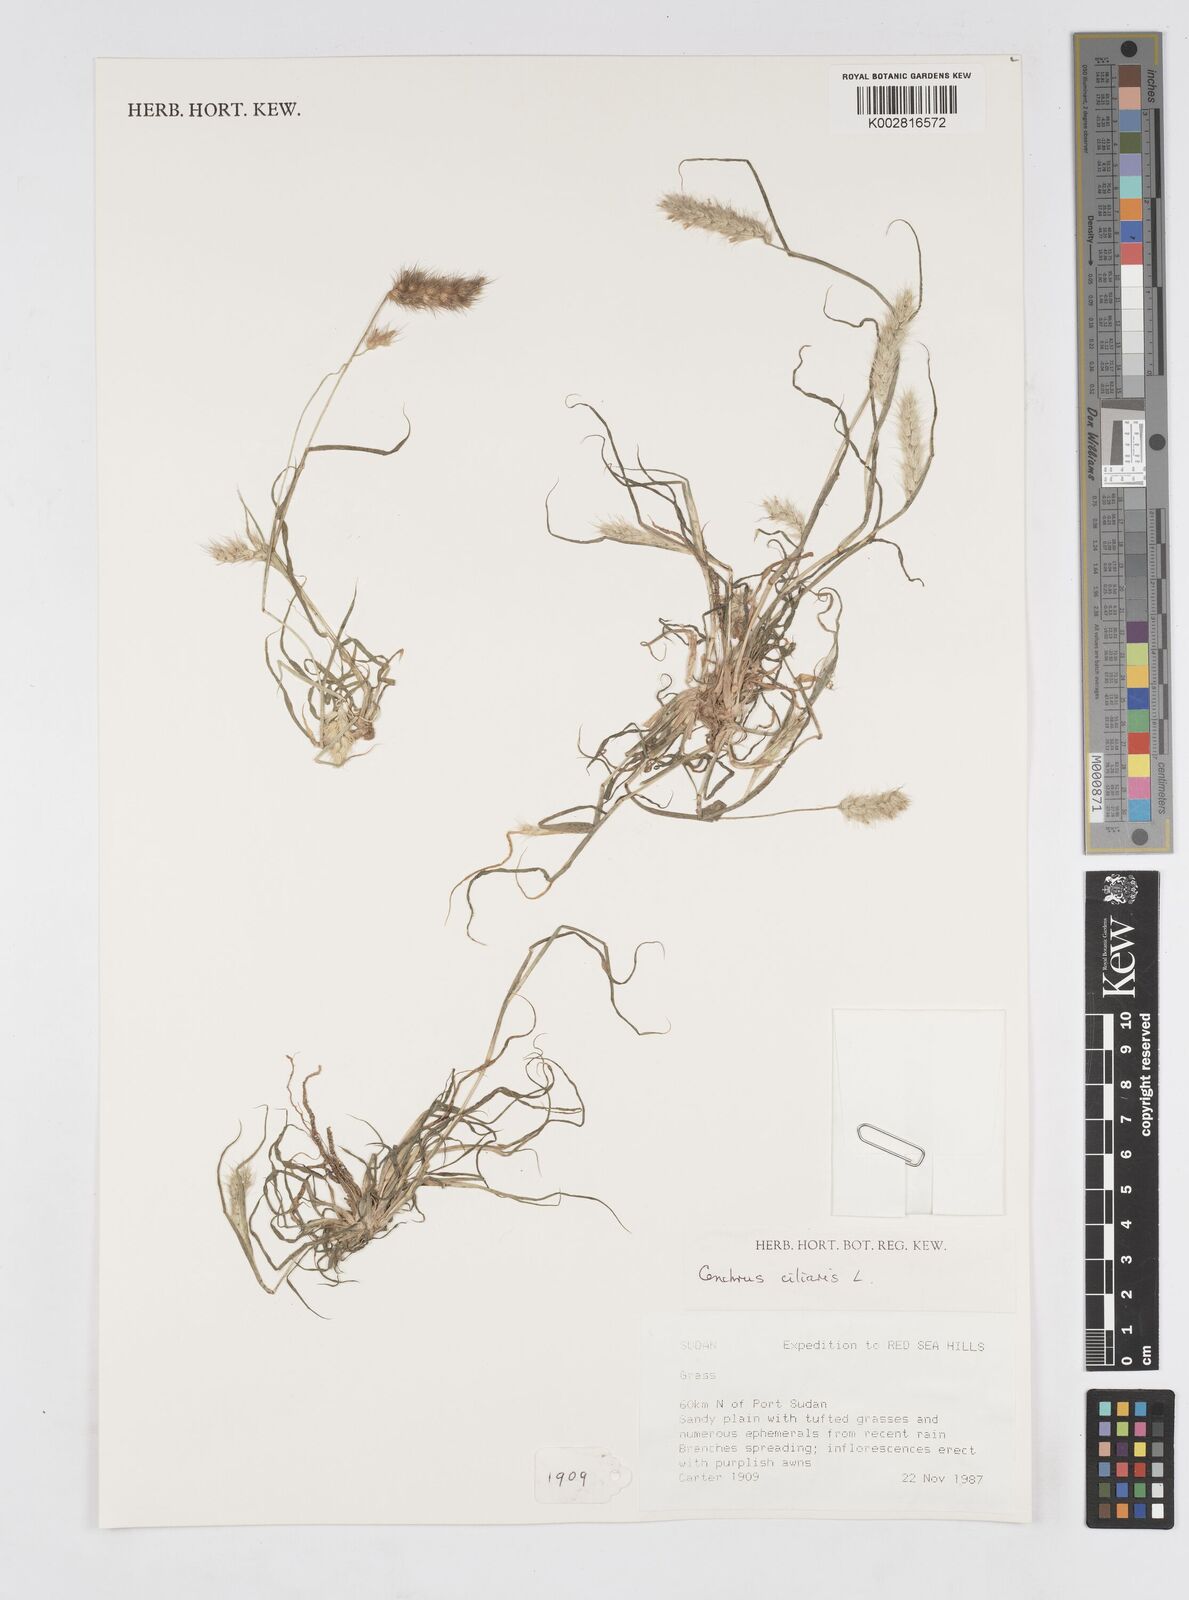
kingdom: Plantae
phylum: Tracheophyta
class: Liliopsida
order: Poales
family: Poaceae
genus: Cenchrus
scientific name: Cenchrus ciliaris
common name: Buffelgrass
